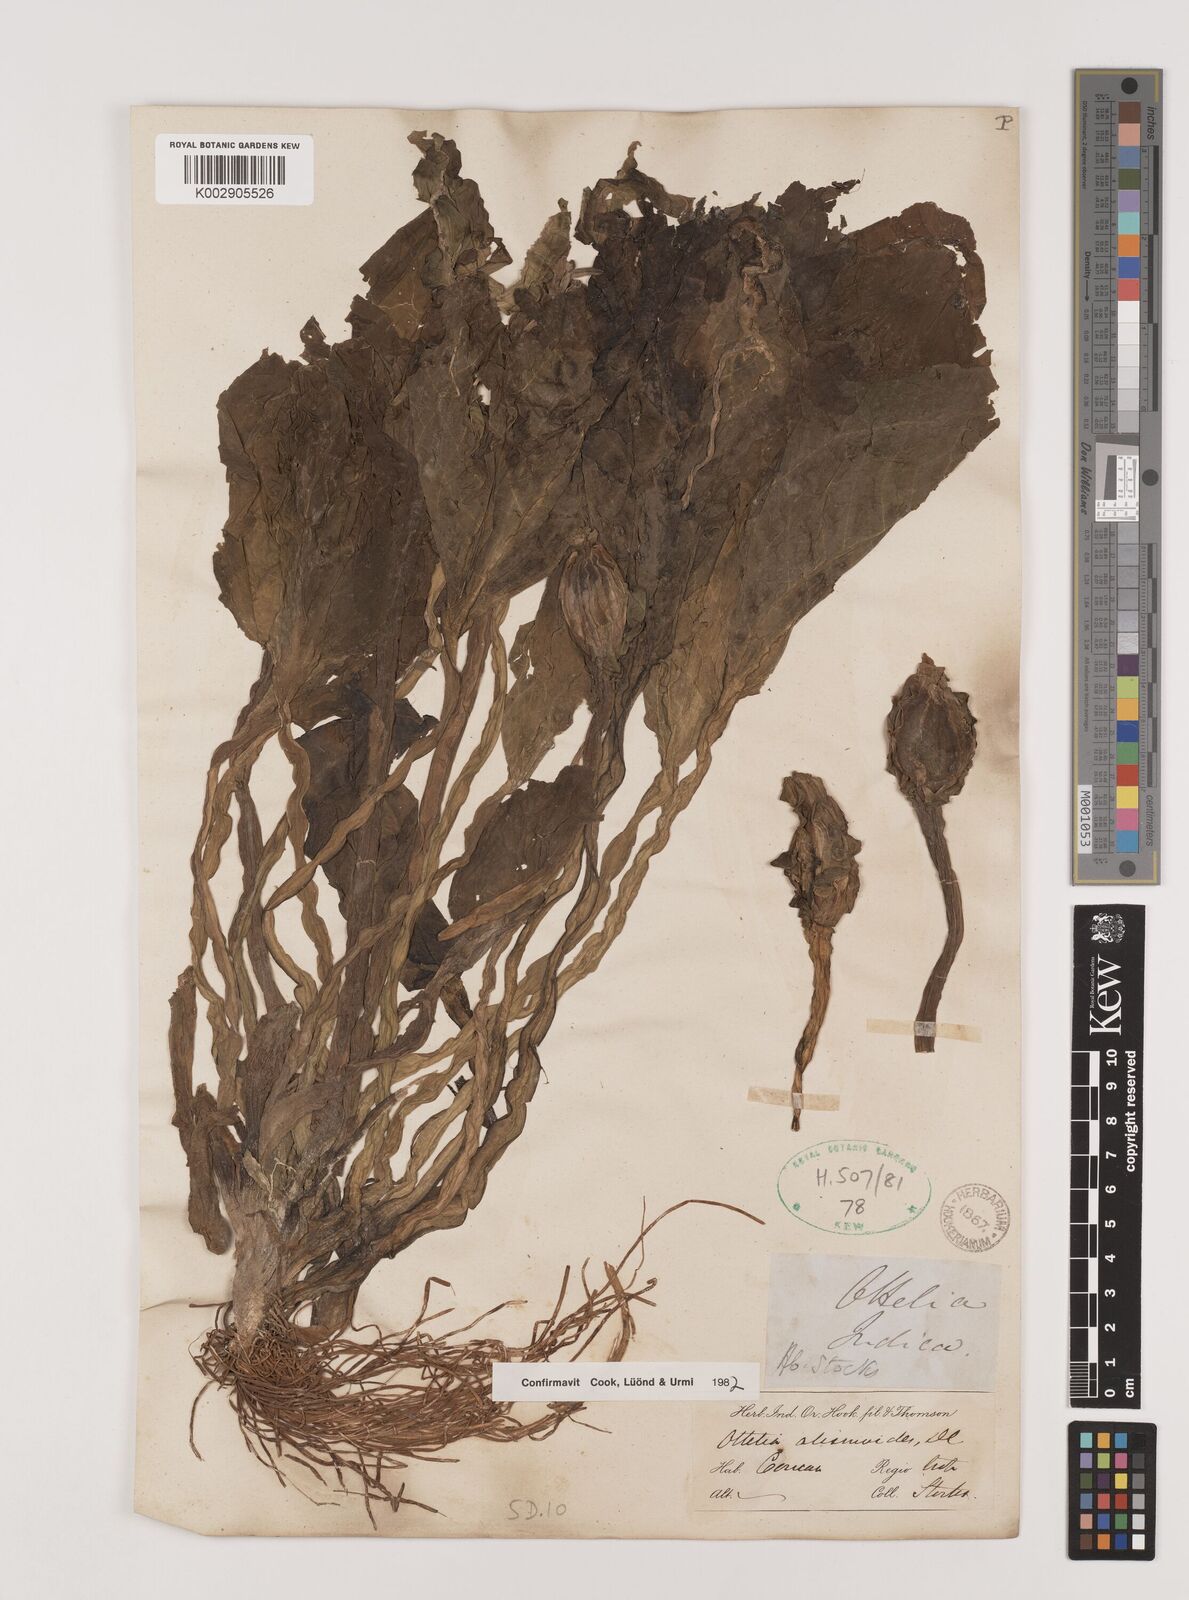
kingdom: Plantae
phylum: Tracheophyta
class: Liliopsida
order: Alismatales
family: Hydrocharitaceae
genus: Ottelia
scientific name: Ottelia alismoides
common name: Duck-lettuce
